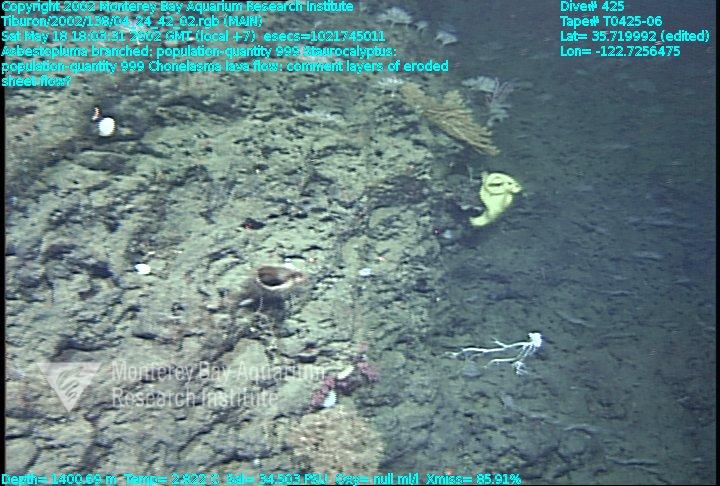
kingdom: Animalia
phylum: Porifera
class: Hexactinellida
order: Lyssacinosida
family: Rossellidae
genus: Staurocalyptus
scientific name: Staurocalyptus
